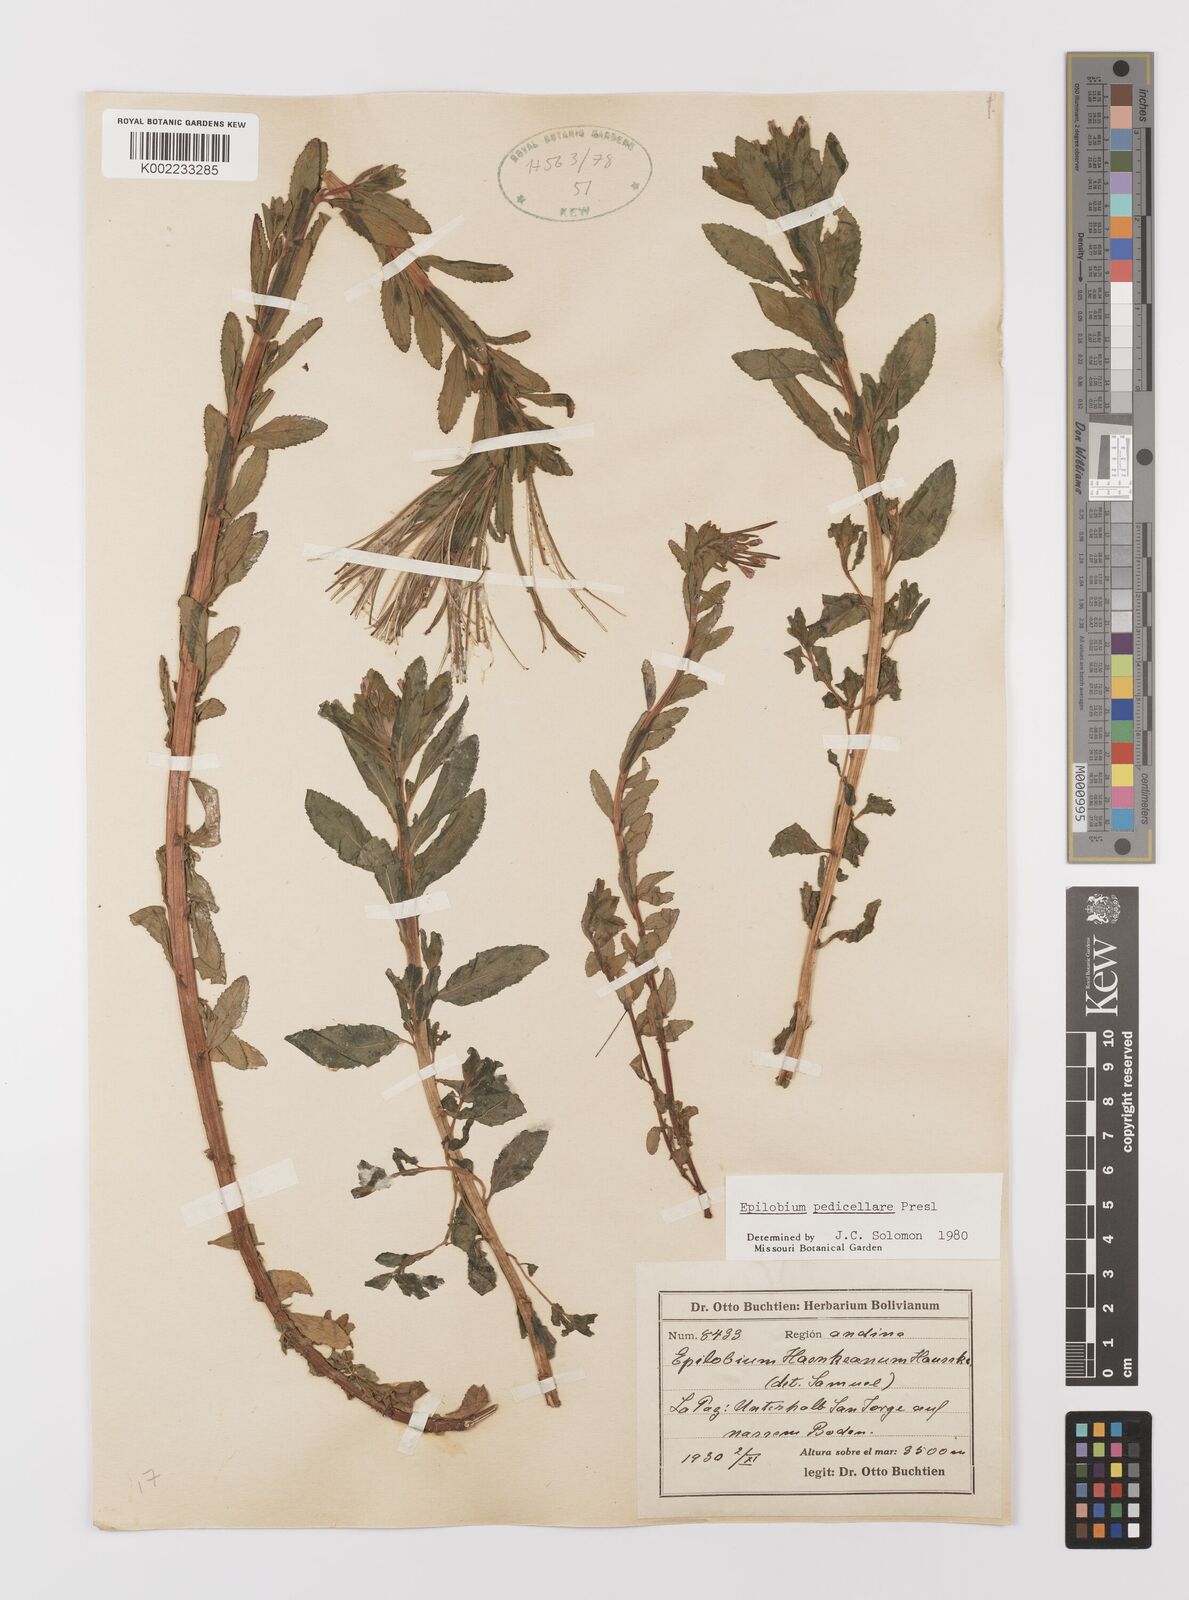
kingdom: Plantae
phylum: Tracheophyta
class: Magnoliopsida
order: Myrtales
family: Onagraceae
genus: Epilobium
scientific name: Epilobium pedicellare
